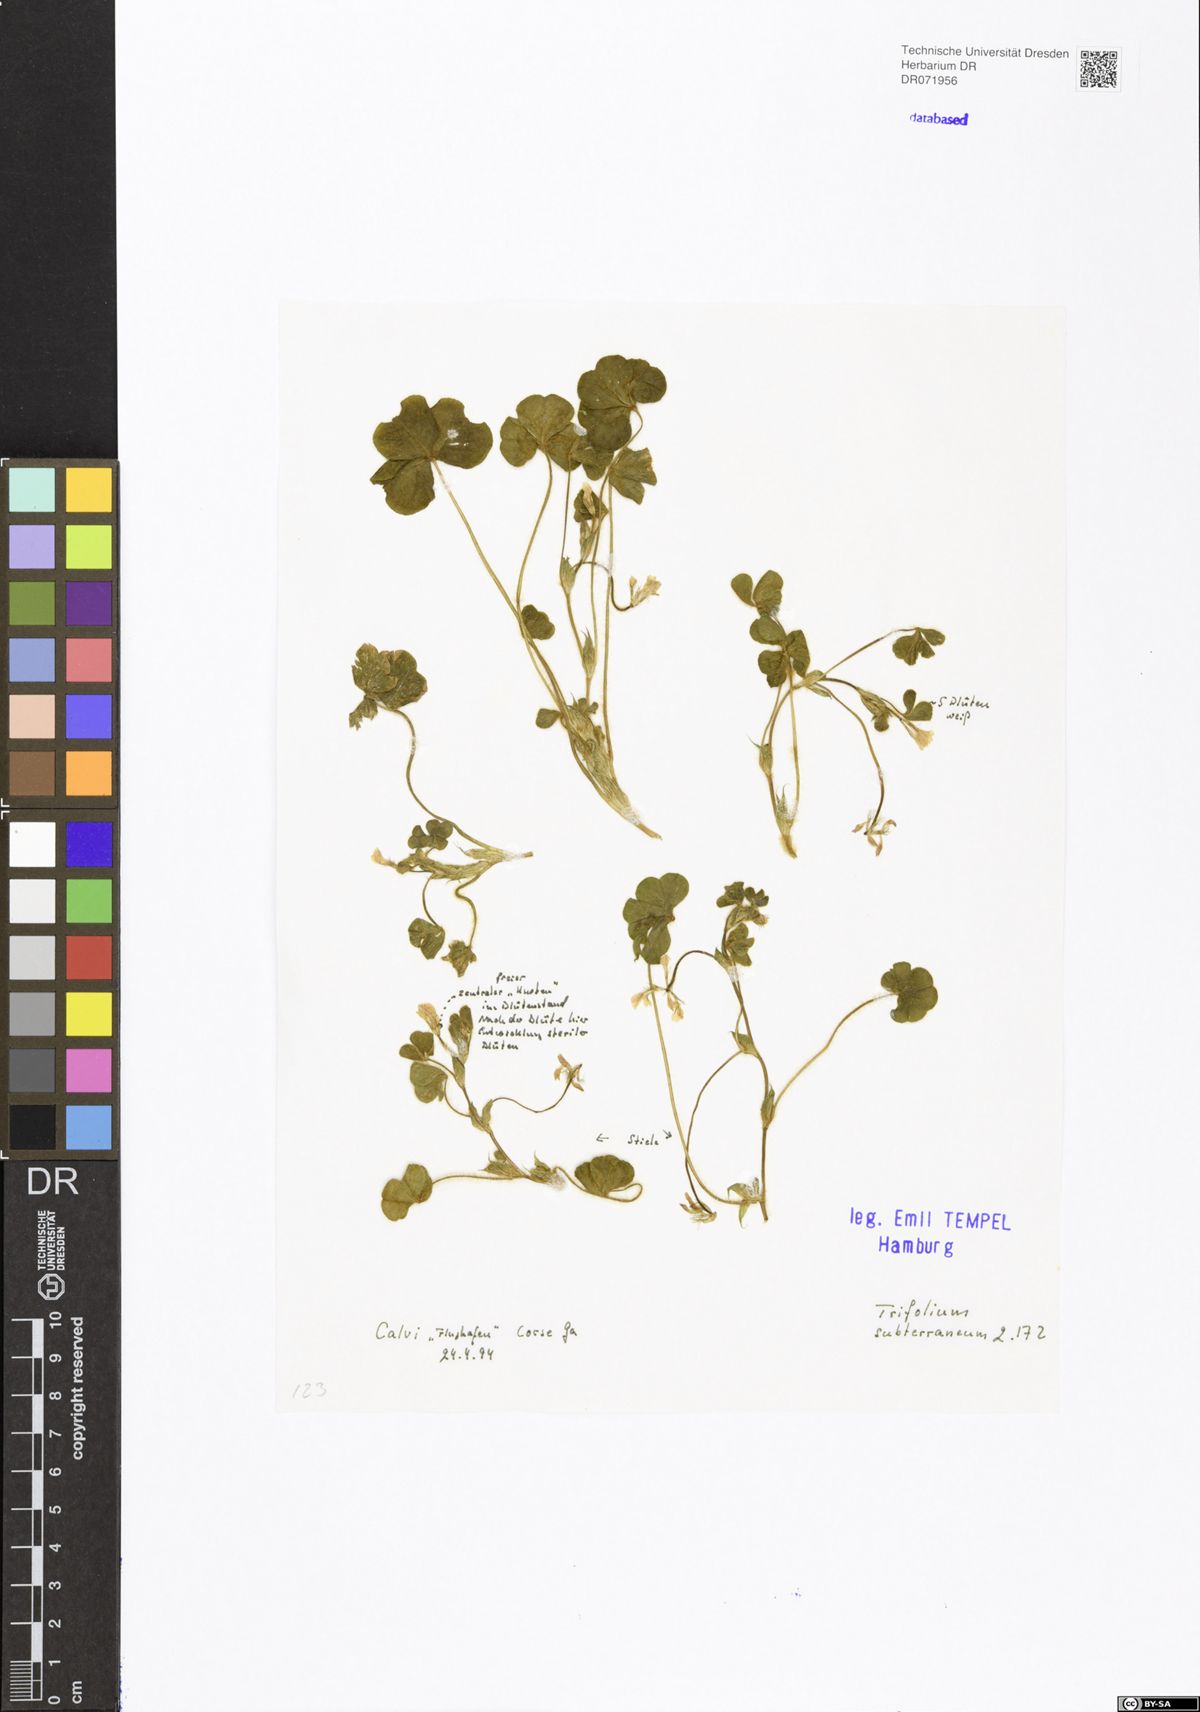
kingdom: Plantae
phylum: Tracheophyta
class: Magnoliopsida
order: Fabales
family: Fabaceae
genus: Trifolium
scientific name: Trifolium subterraneum
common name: Subterranean clover
